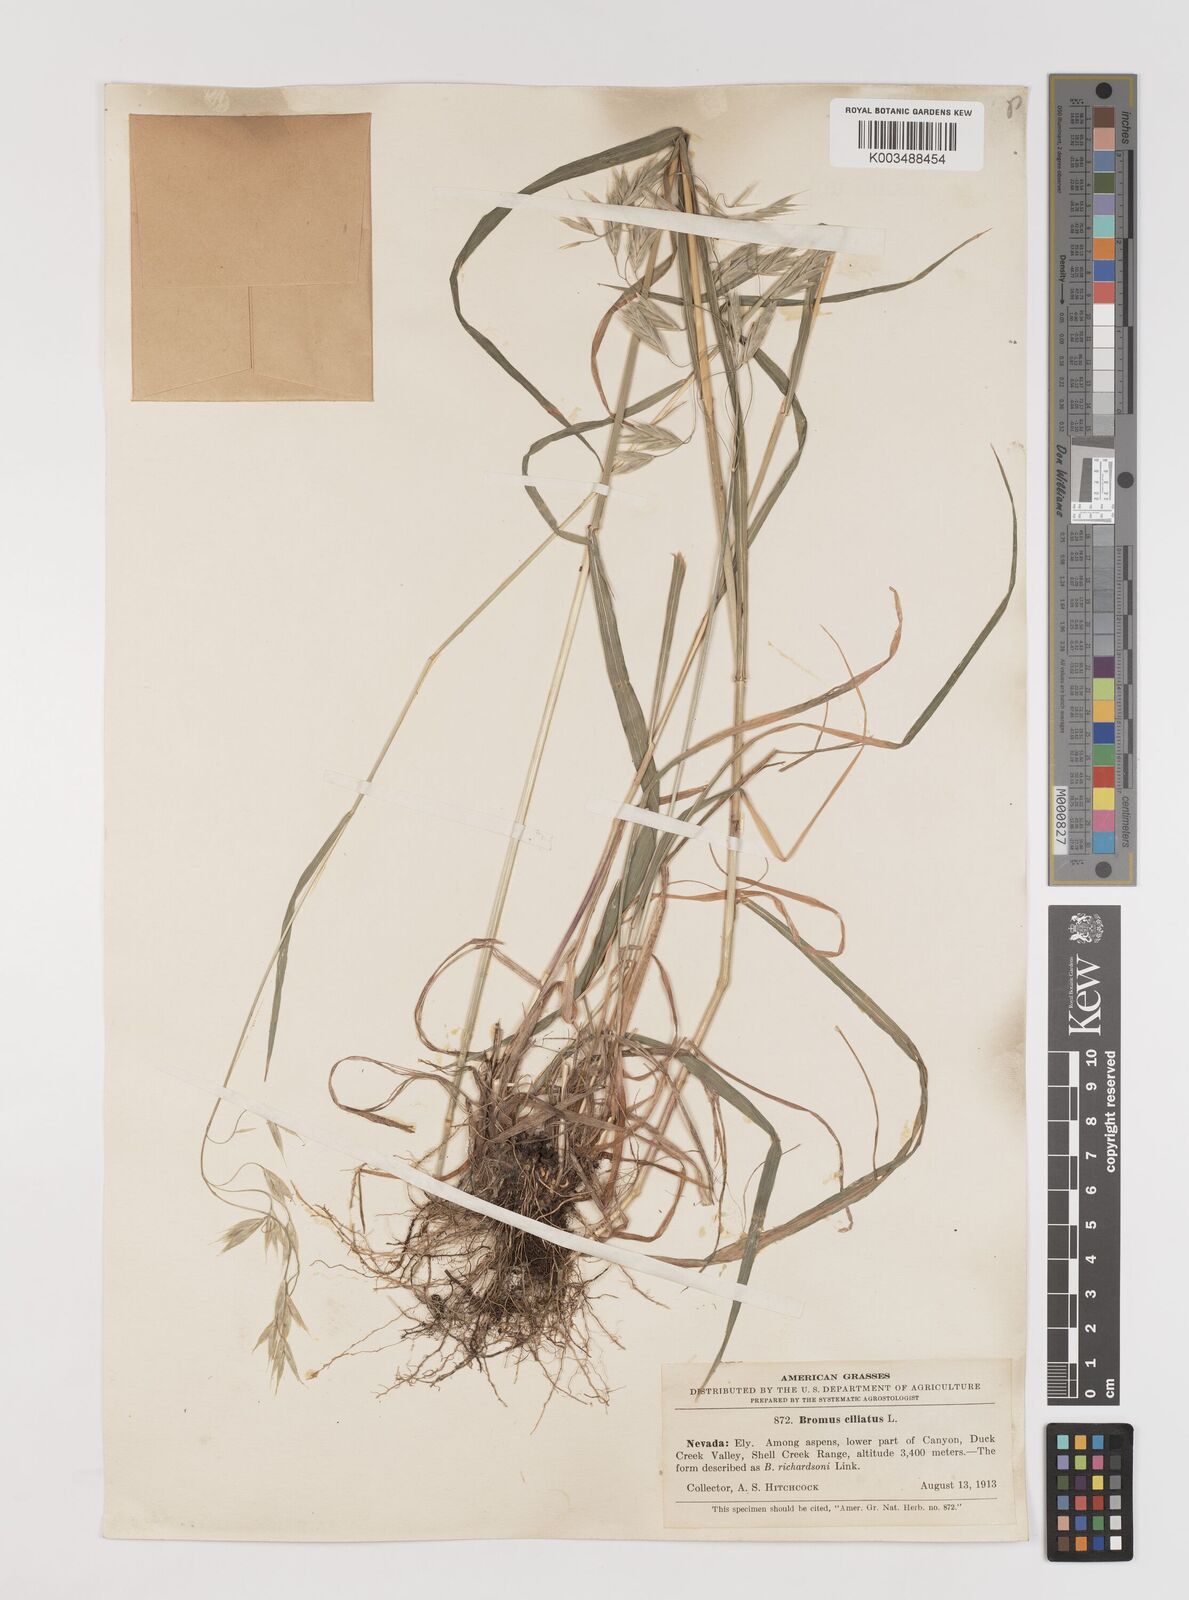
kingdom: Plantae
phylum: Tracheophyta
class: Liliopsida
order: Poales
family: Poaceae
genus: Bromus
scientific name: Bromus ciliatus
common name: Fringe brome
